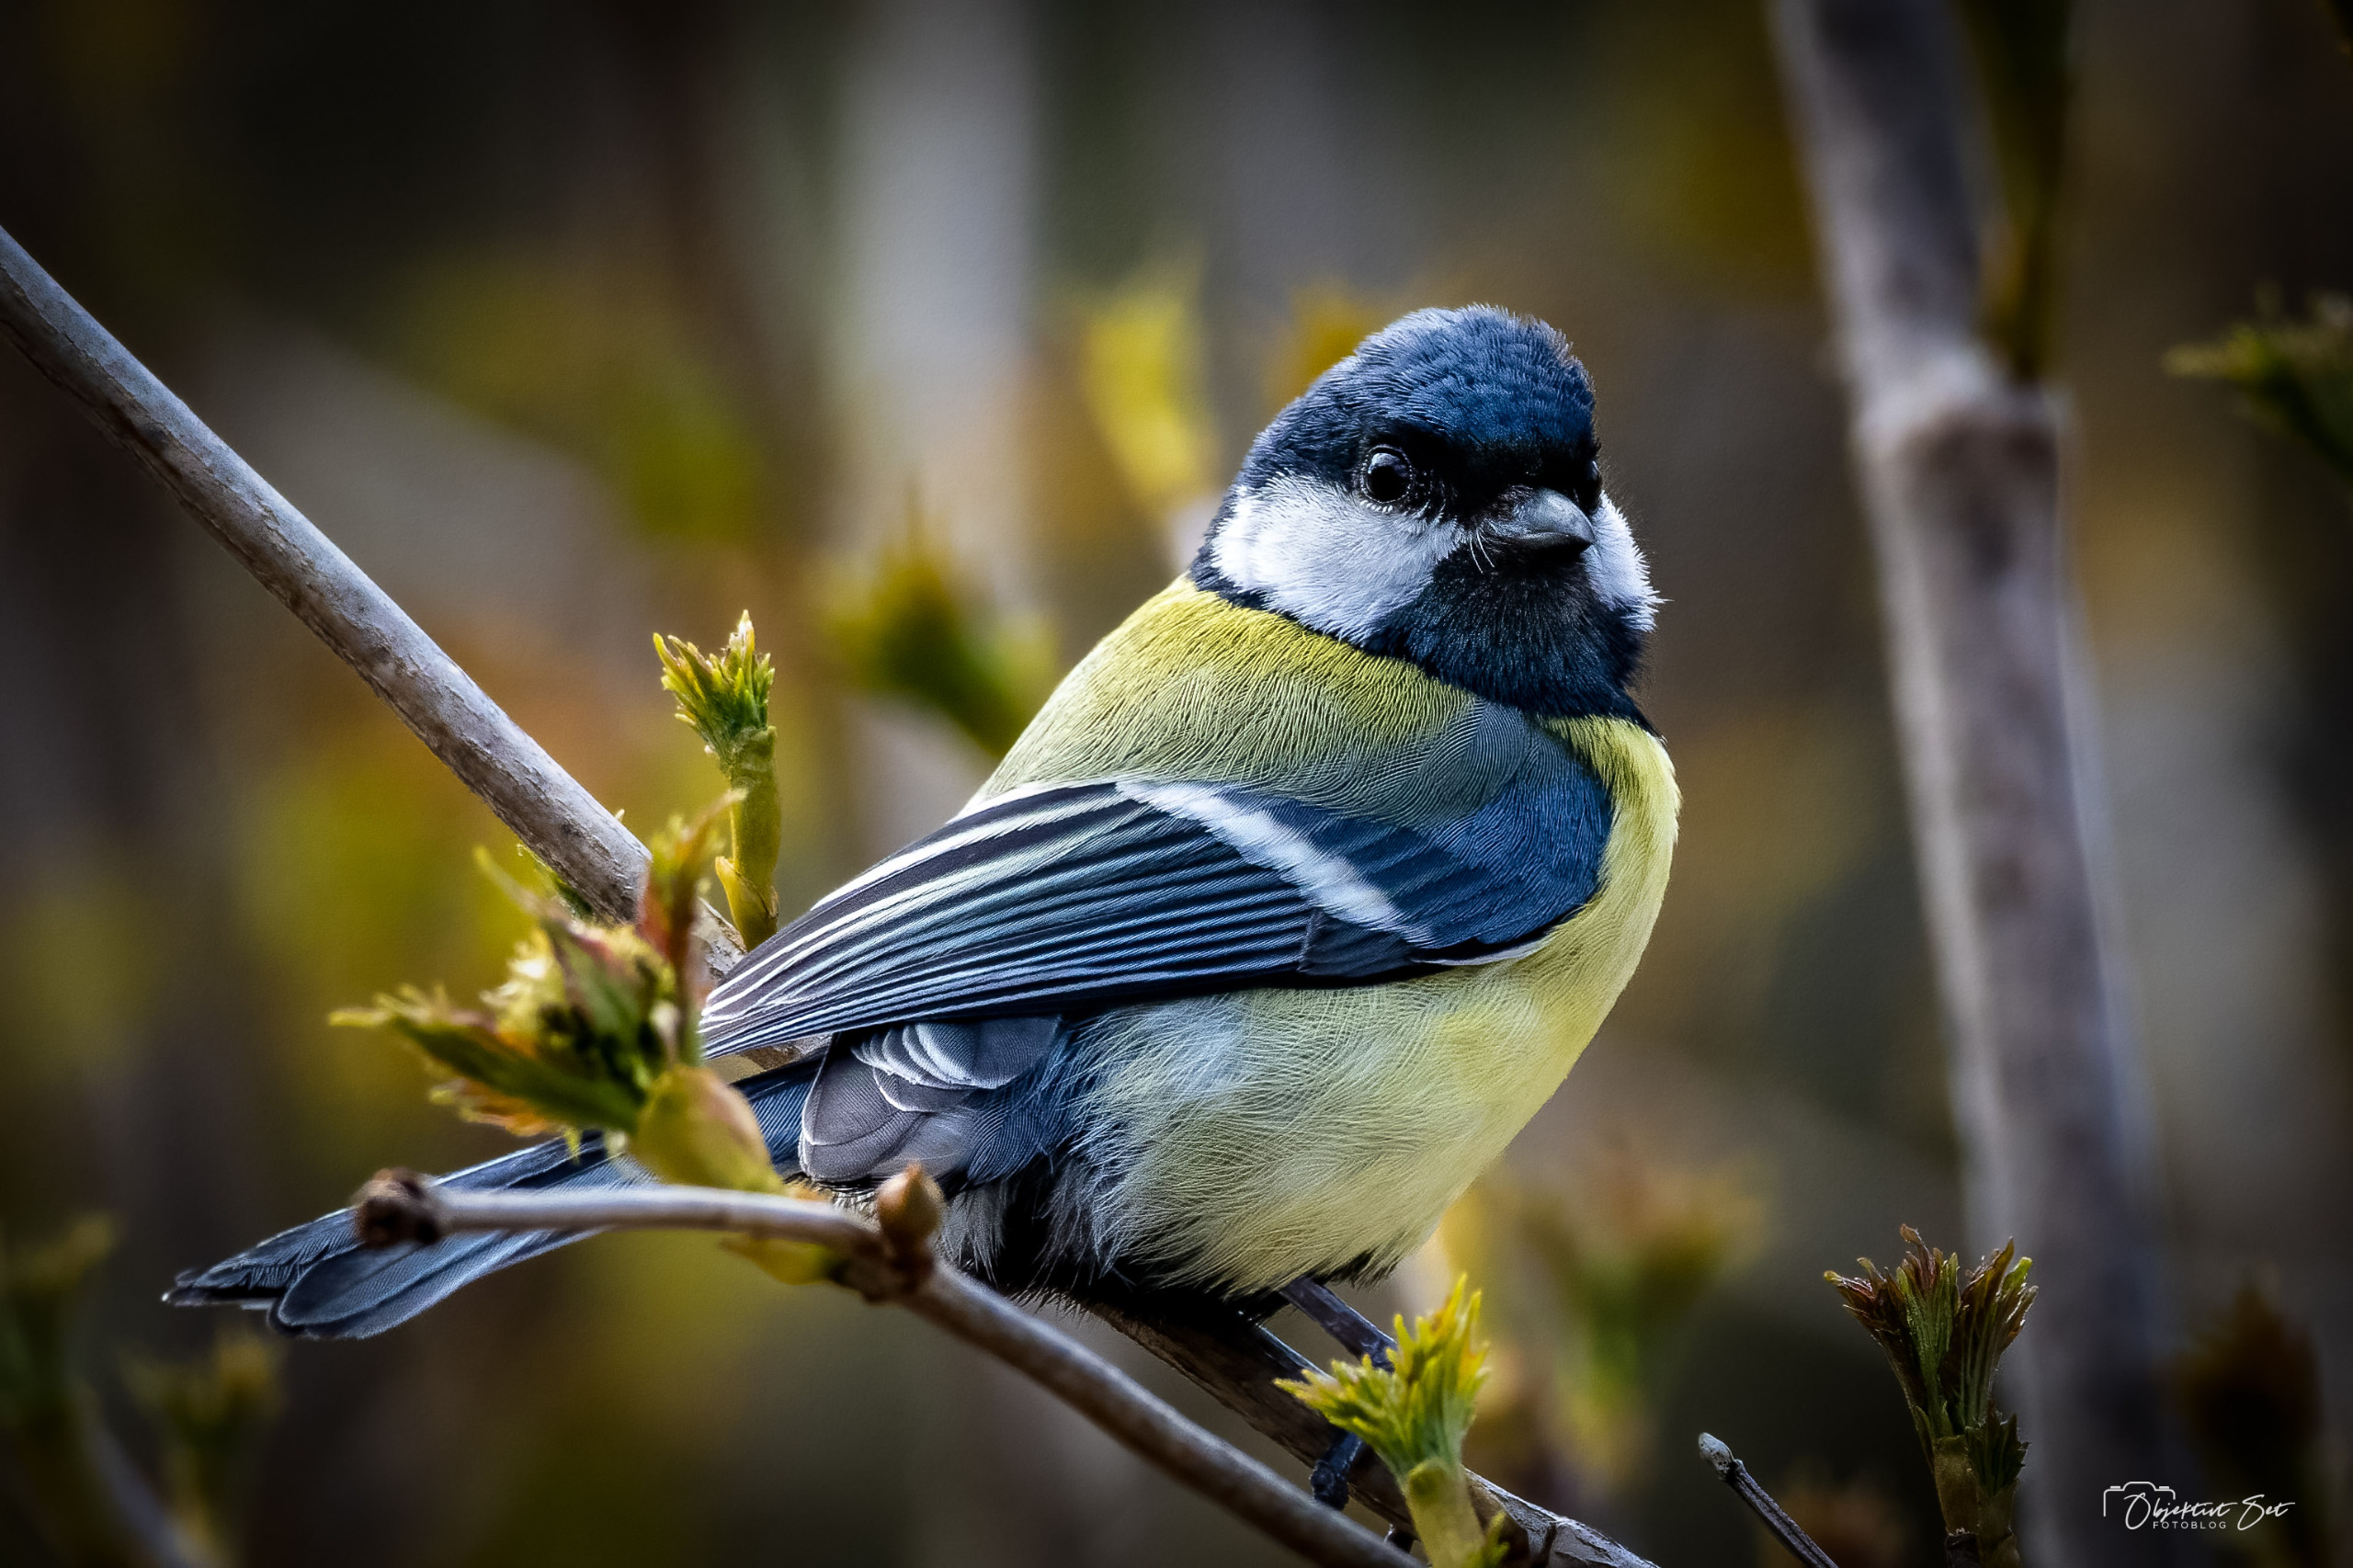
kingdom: Animalia
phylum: Chordata
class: Aves
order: Passeriformes
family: Paridae
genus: Parus
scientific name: Parus major
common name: Musvit
